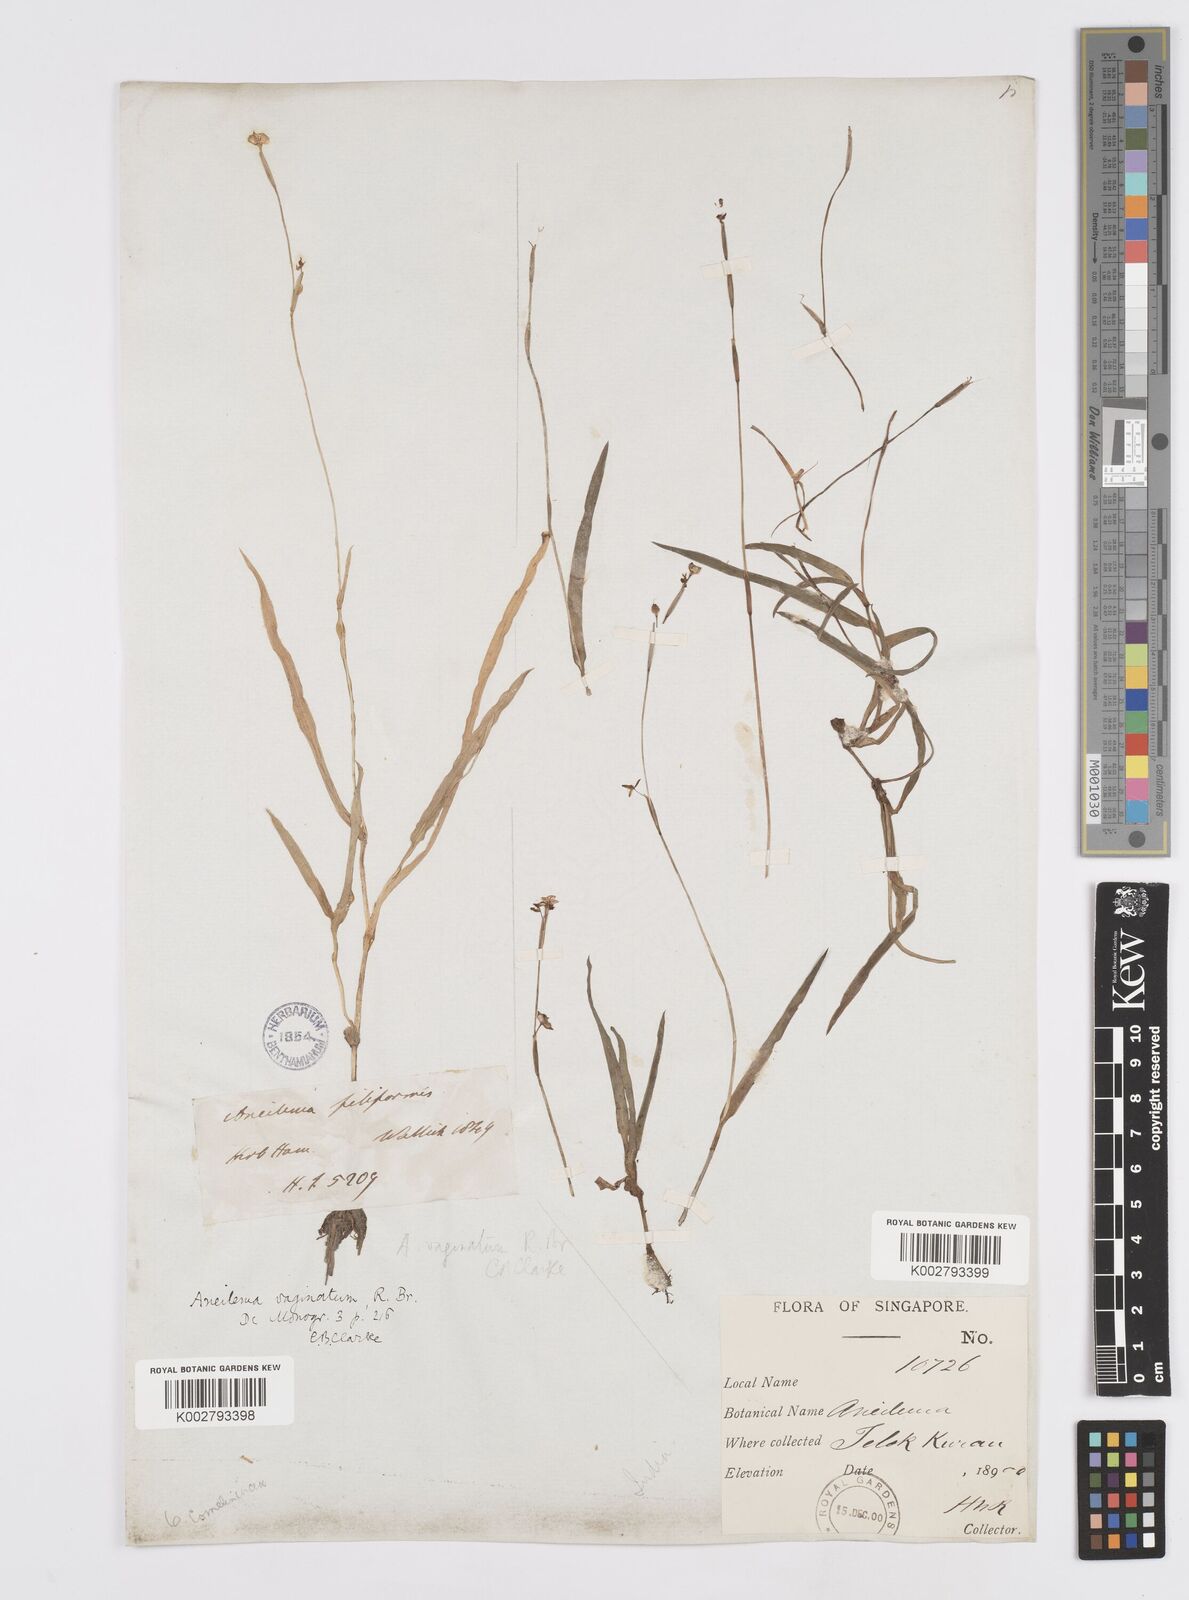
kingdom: Plantae
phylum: Tracheophyta
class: Liliopsida
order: Commelinales
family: Commelinaceae
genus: Murdannia
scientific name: Murdannia vaginata
